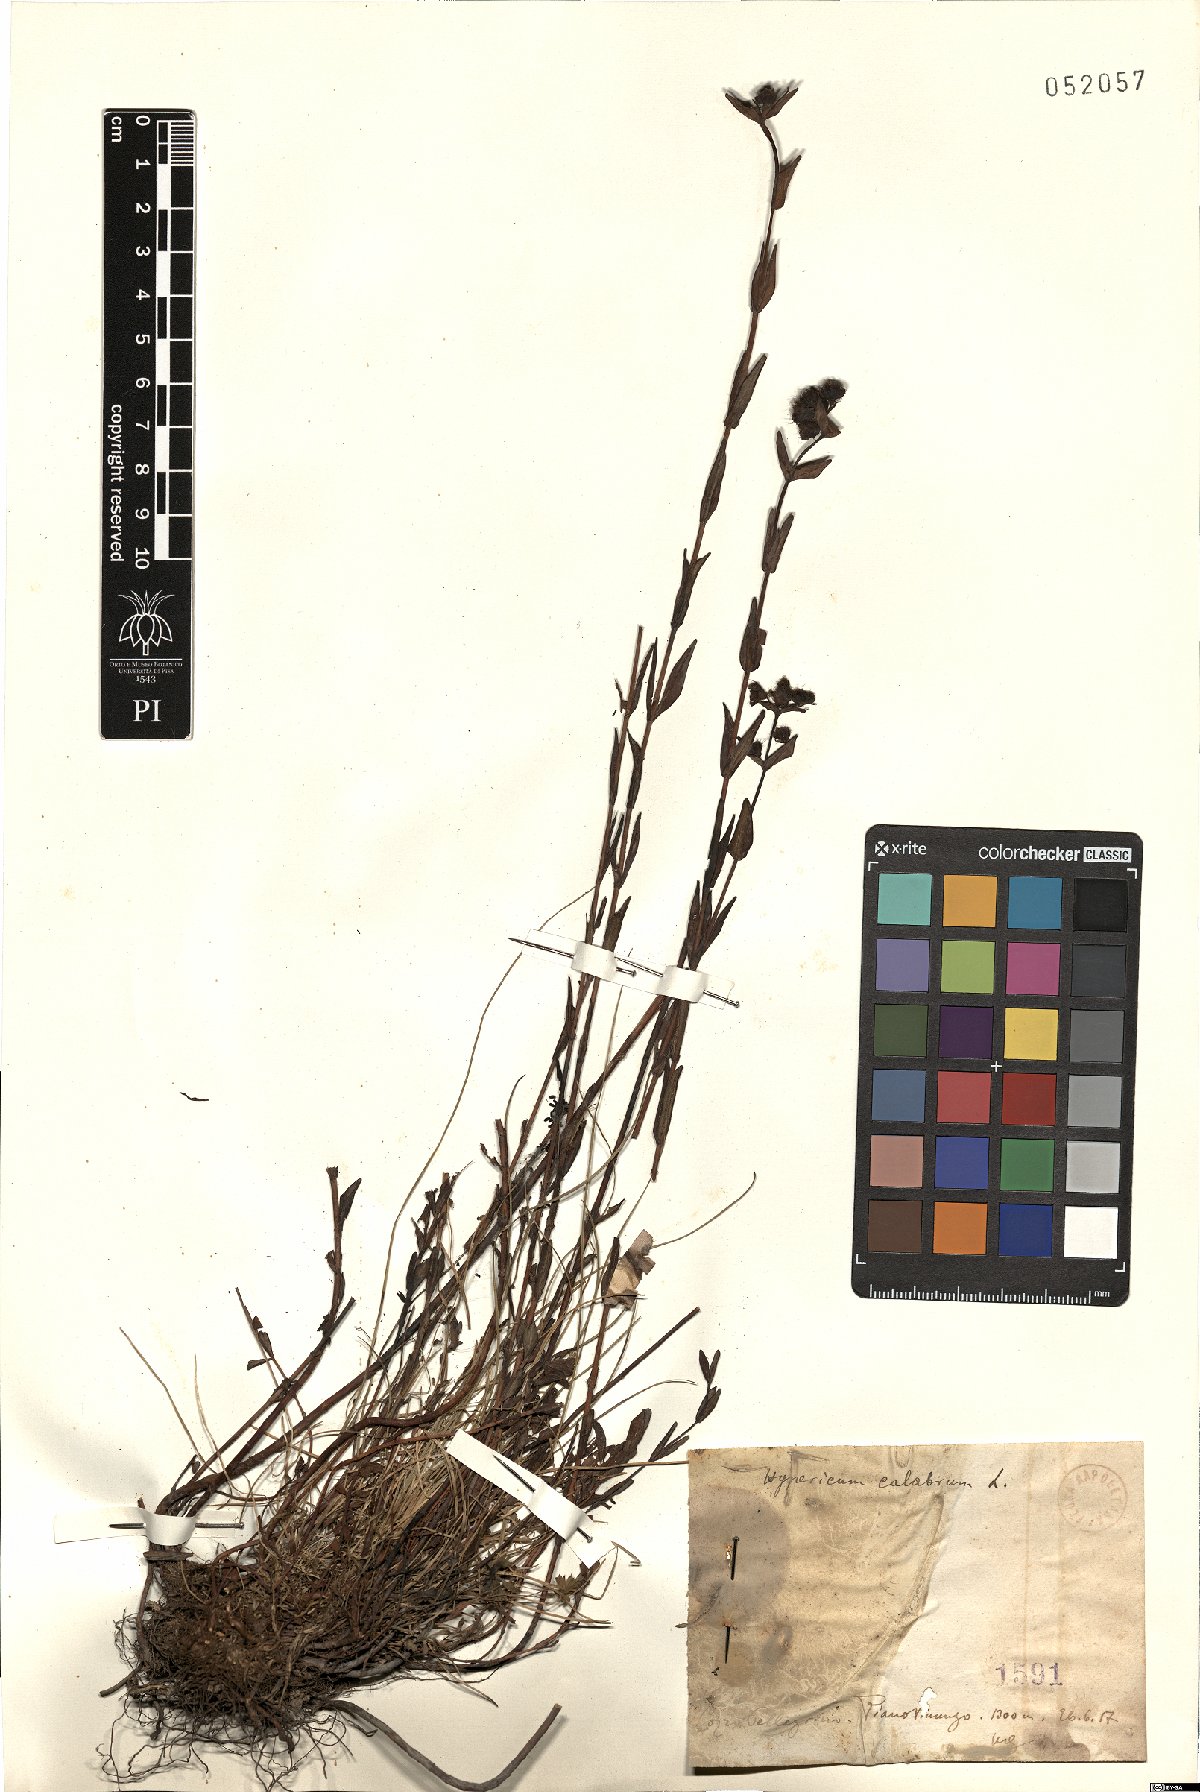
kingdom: Plantae
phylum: Tracheophyta
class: Magnoliopsida
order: Malpighiales
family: Hypericaceae
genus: Hypericum
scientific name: Hypericum barbatum
